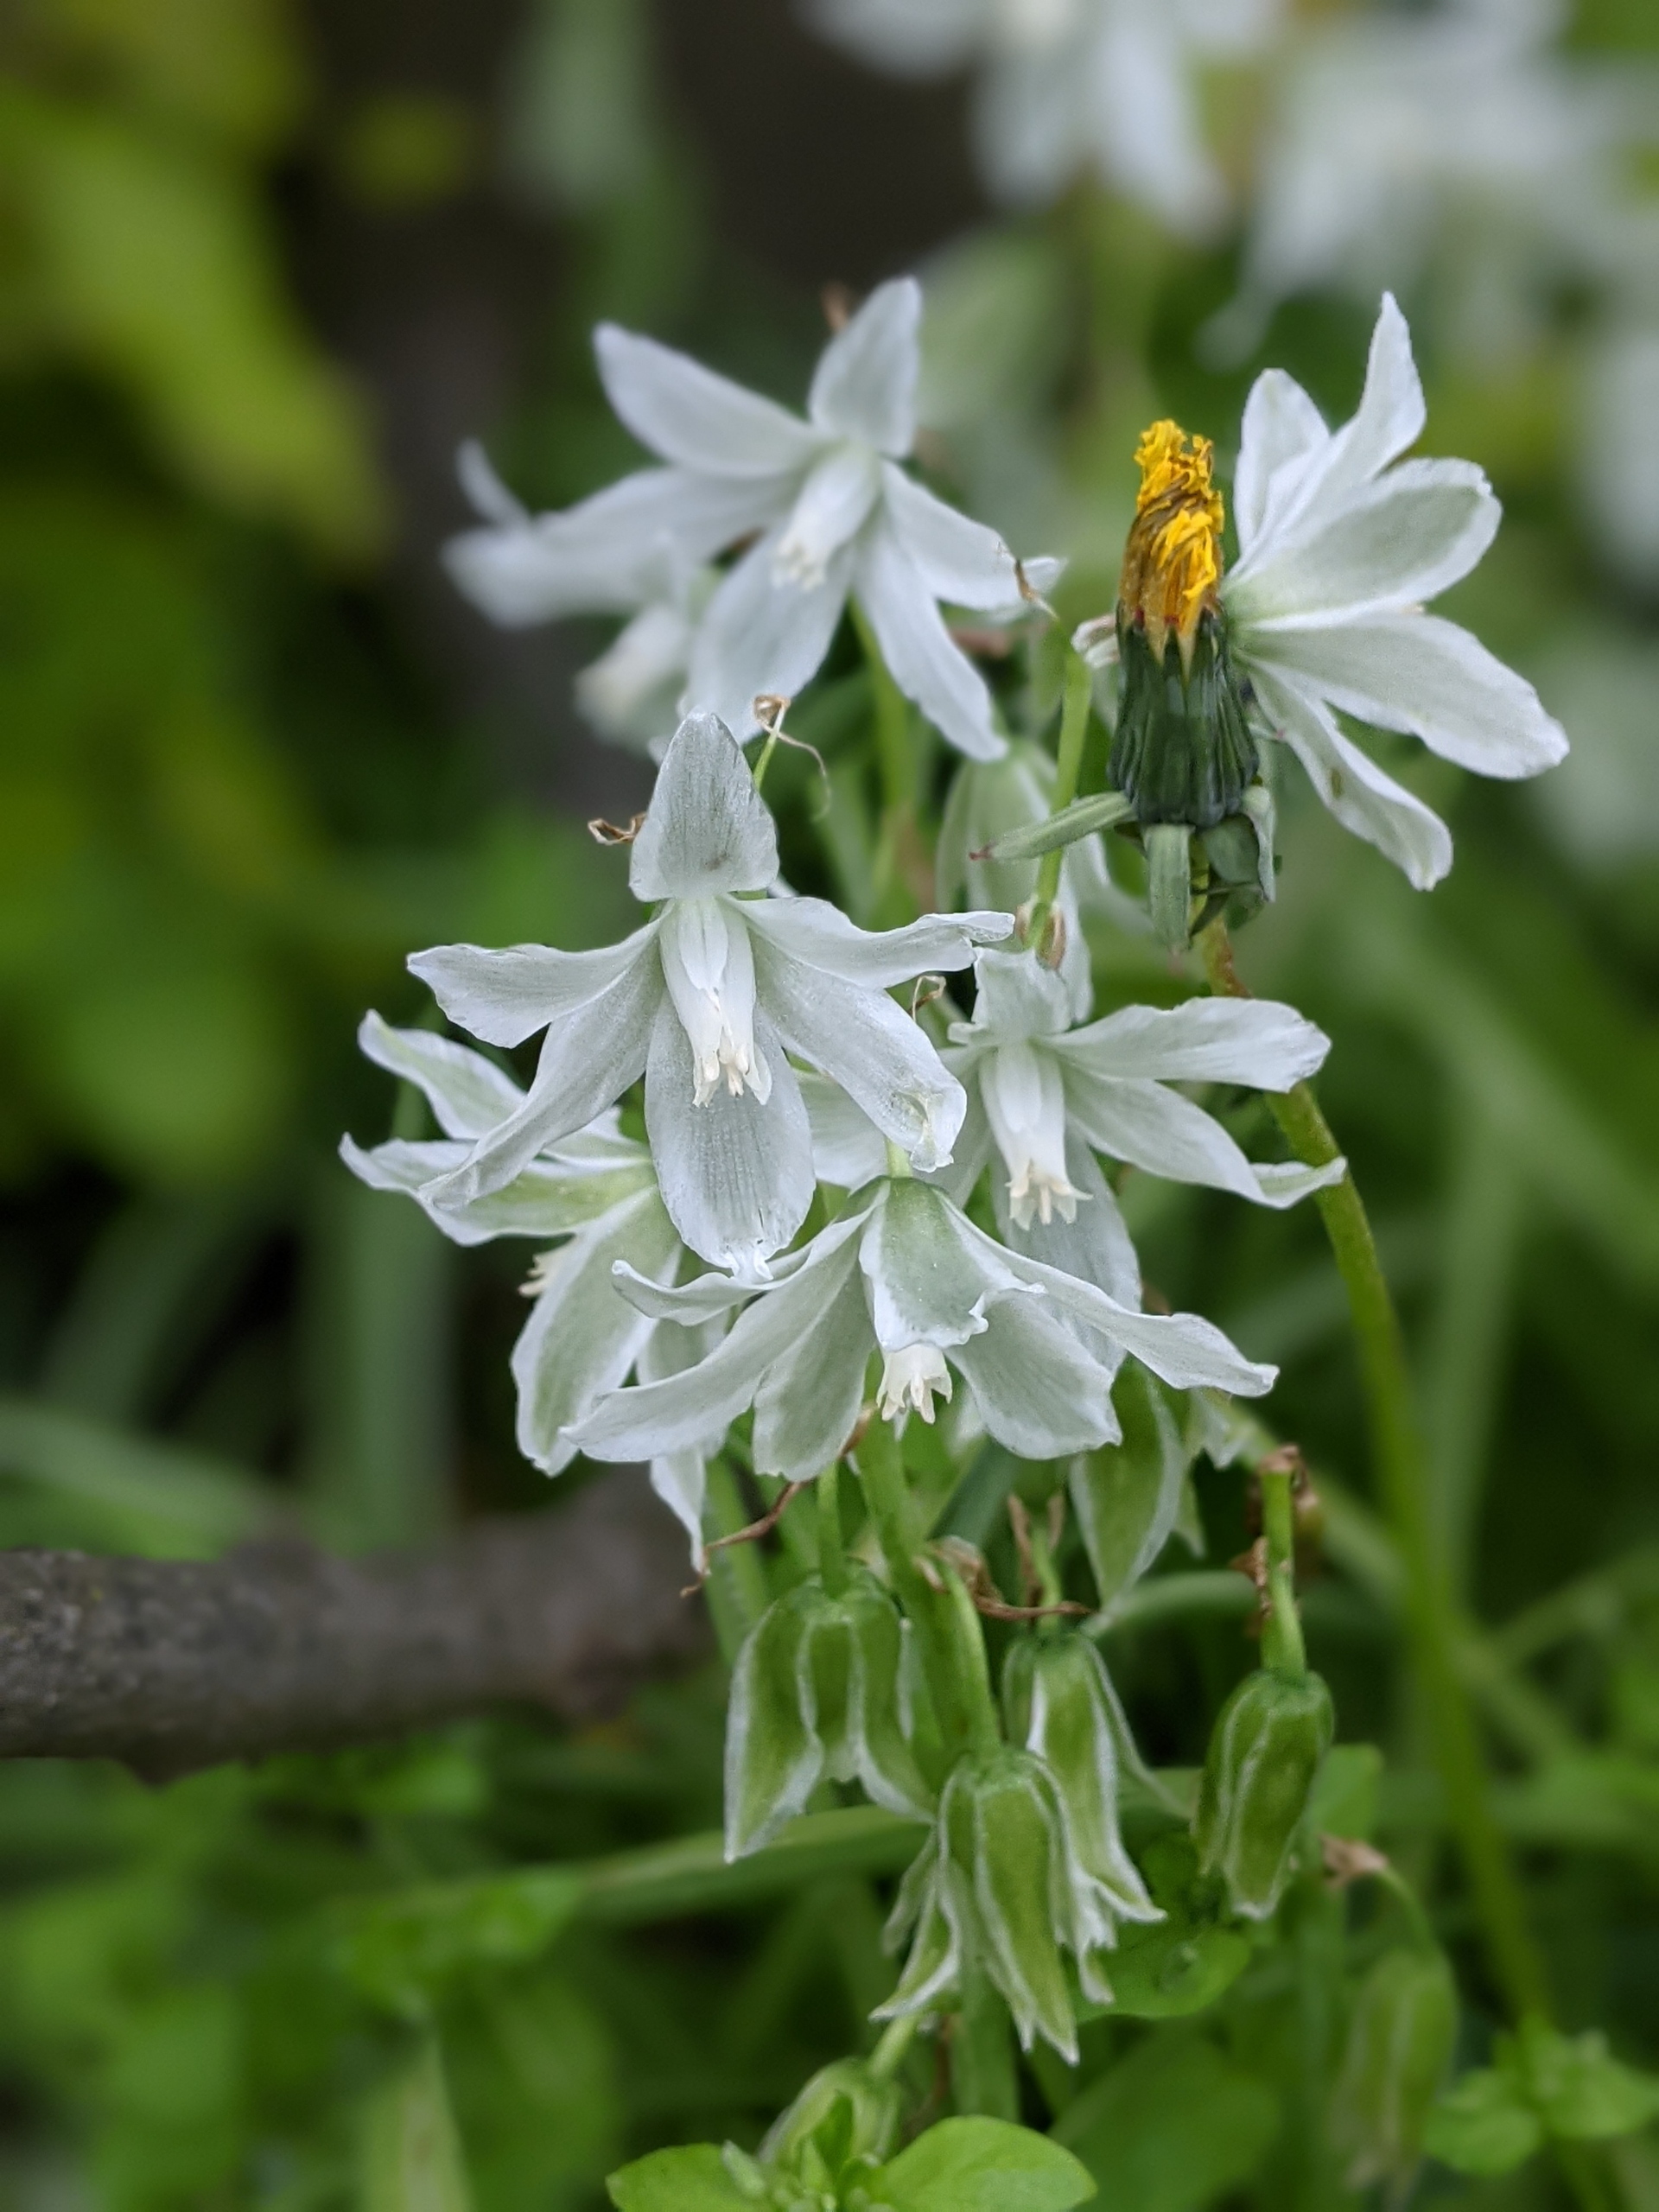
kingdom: Plantae
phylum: Tracheophyta
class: Liliopsida
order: Asparagales
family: Asparagaceae
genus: Ornithogalum
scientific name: Ornithogalum nutans
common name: Nikkende fuglemælk
